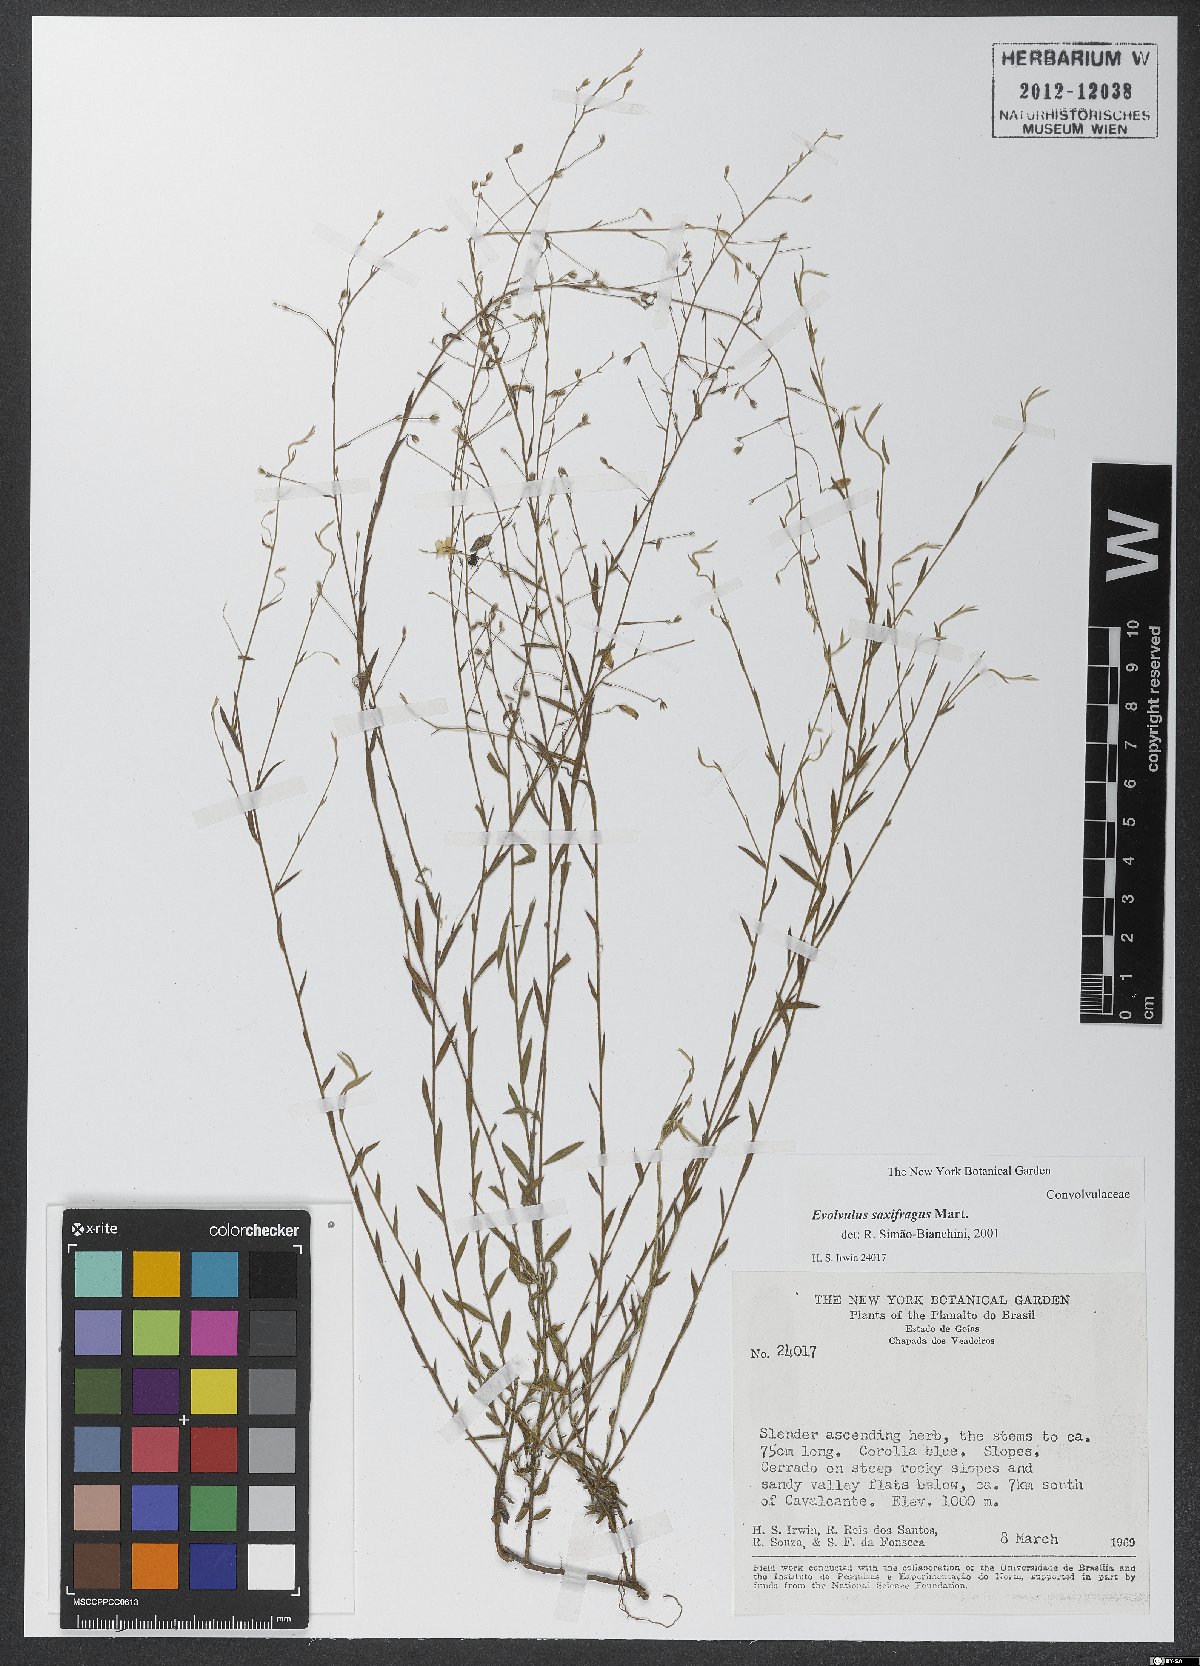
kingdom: Plantae
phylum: Tracheophyta
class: Magnoliopsida
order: Solanales
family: Convolvulaceae
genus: Evolvulus
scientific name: Evolvulus saxifragus
